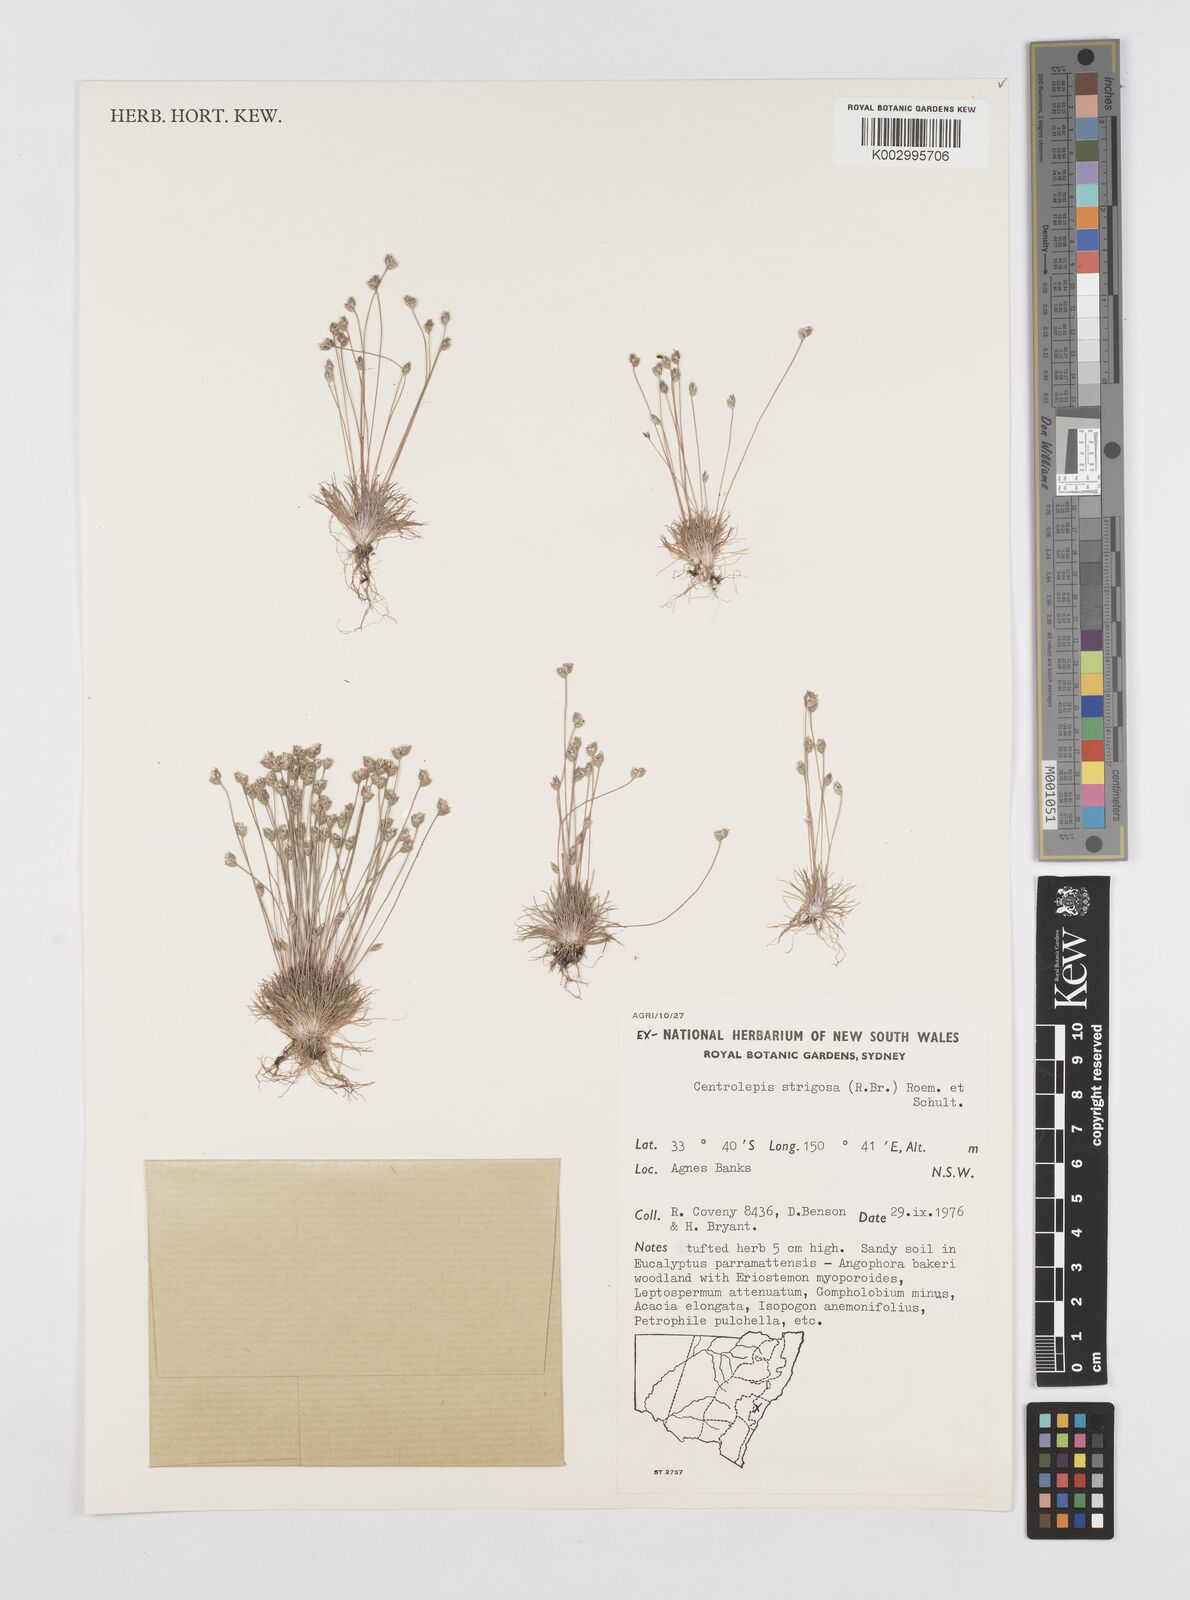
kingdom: Plantae
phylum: Tracheophyta
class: Liliopsida
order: Poales
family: Restionaceae
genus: Centrolepis
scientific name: Centrolepis strigosa
